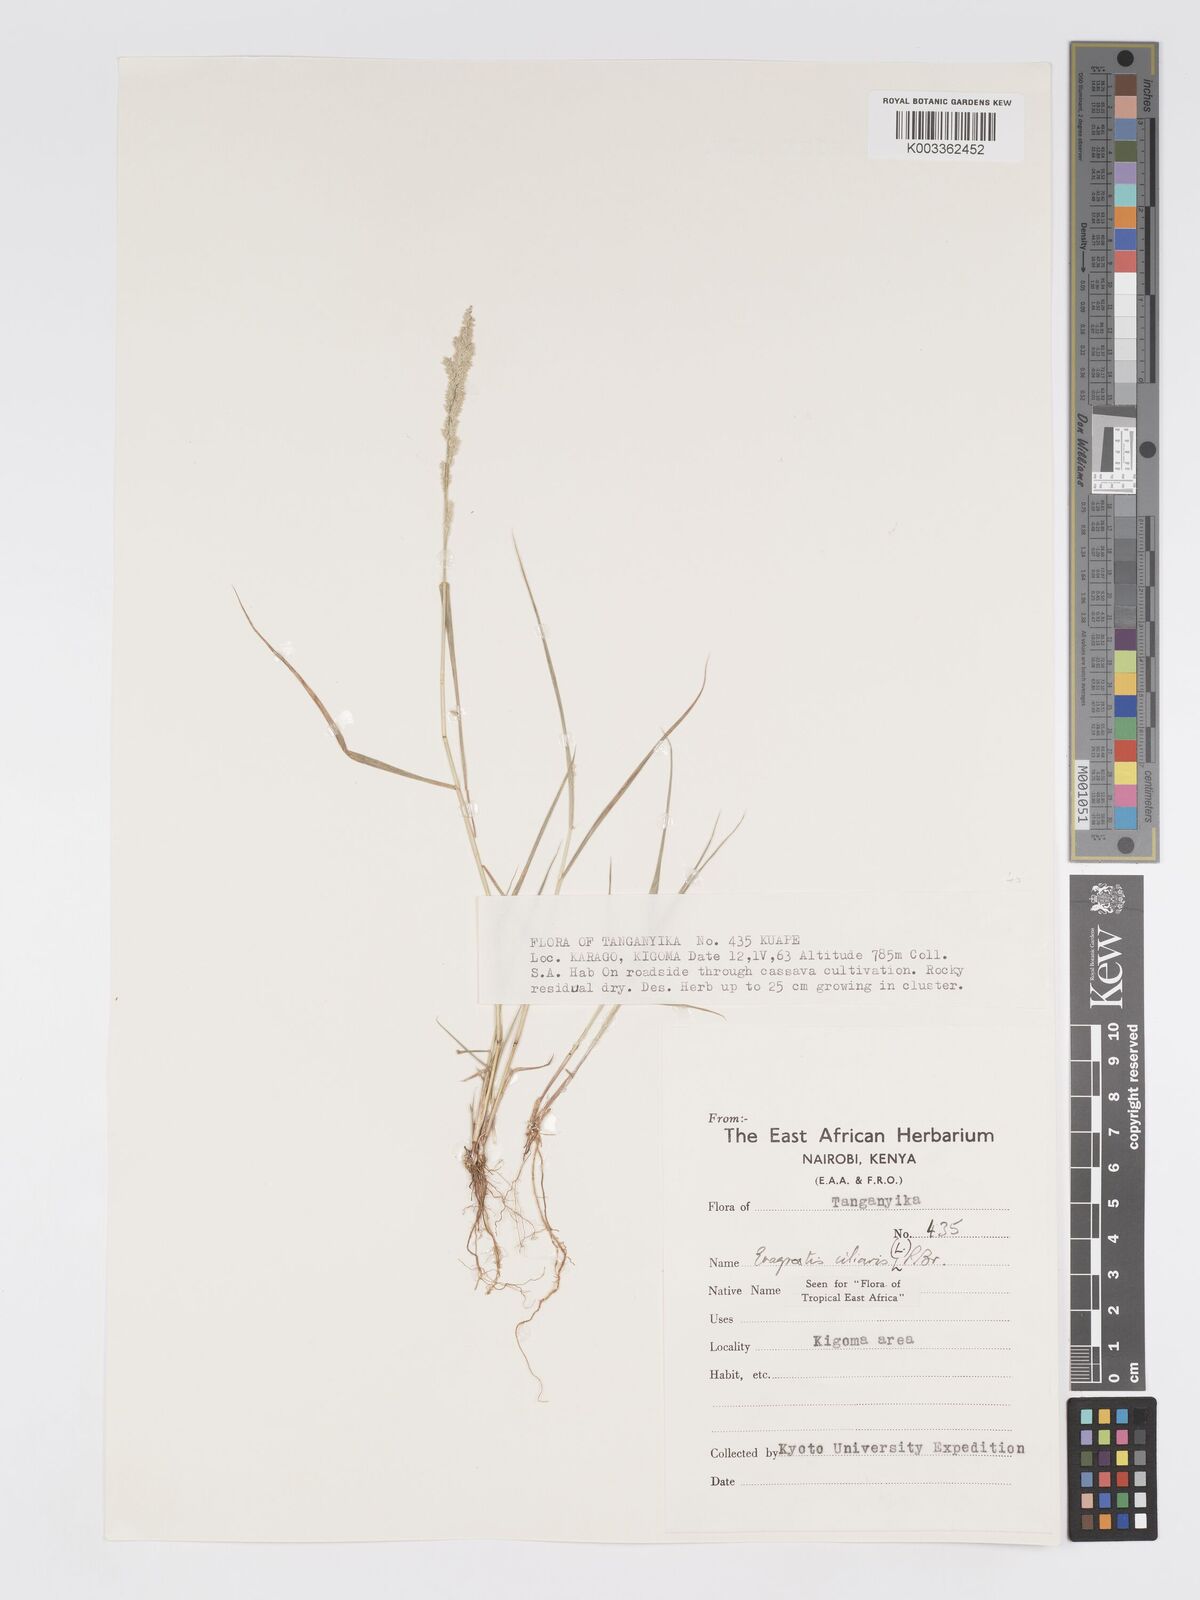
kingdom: Plantae
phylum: Tracheophyta
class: Liliopsida
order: Poales
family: Poaceae
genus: Eragrostis
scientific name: Eragrostis ciliaris
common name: Gophertail lovegrass
